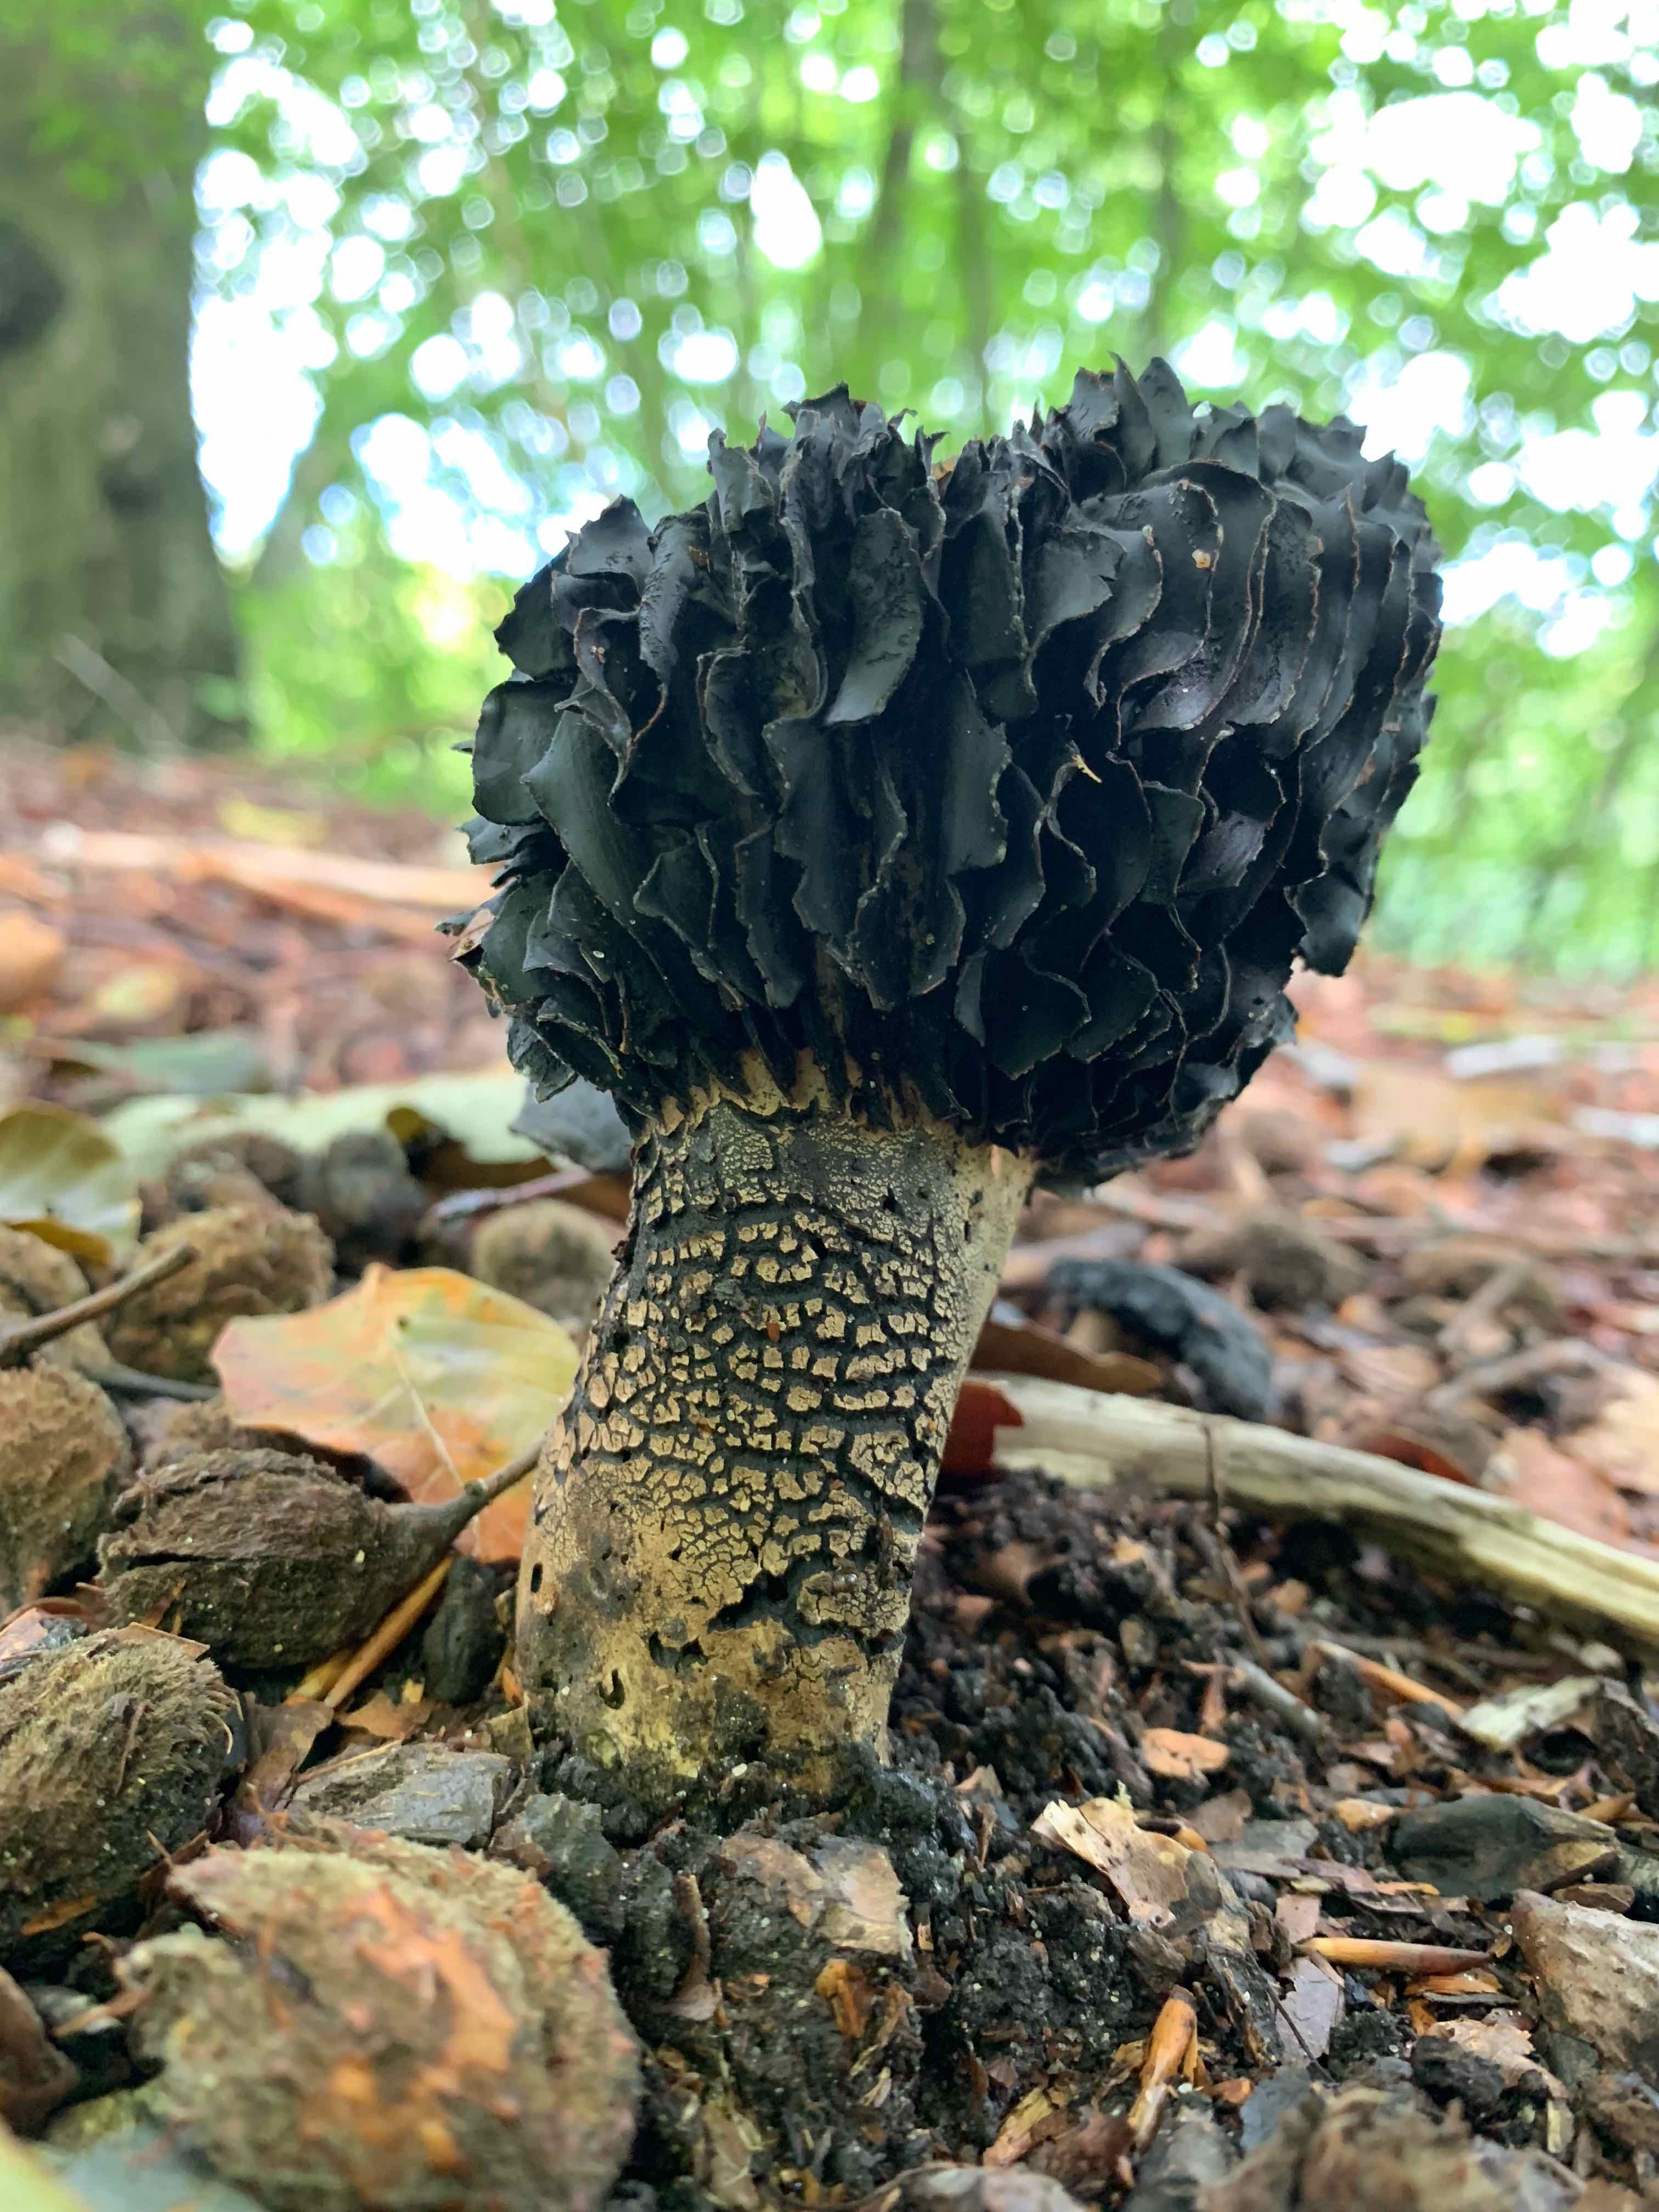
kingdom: Fungi
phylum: Basidiomycota
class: Agaricomycetes
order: Russulales
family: Russulaceae
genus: Russula
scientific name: Russula adusta
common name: sværtende skørhat
